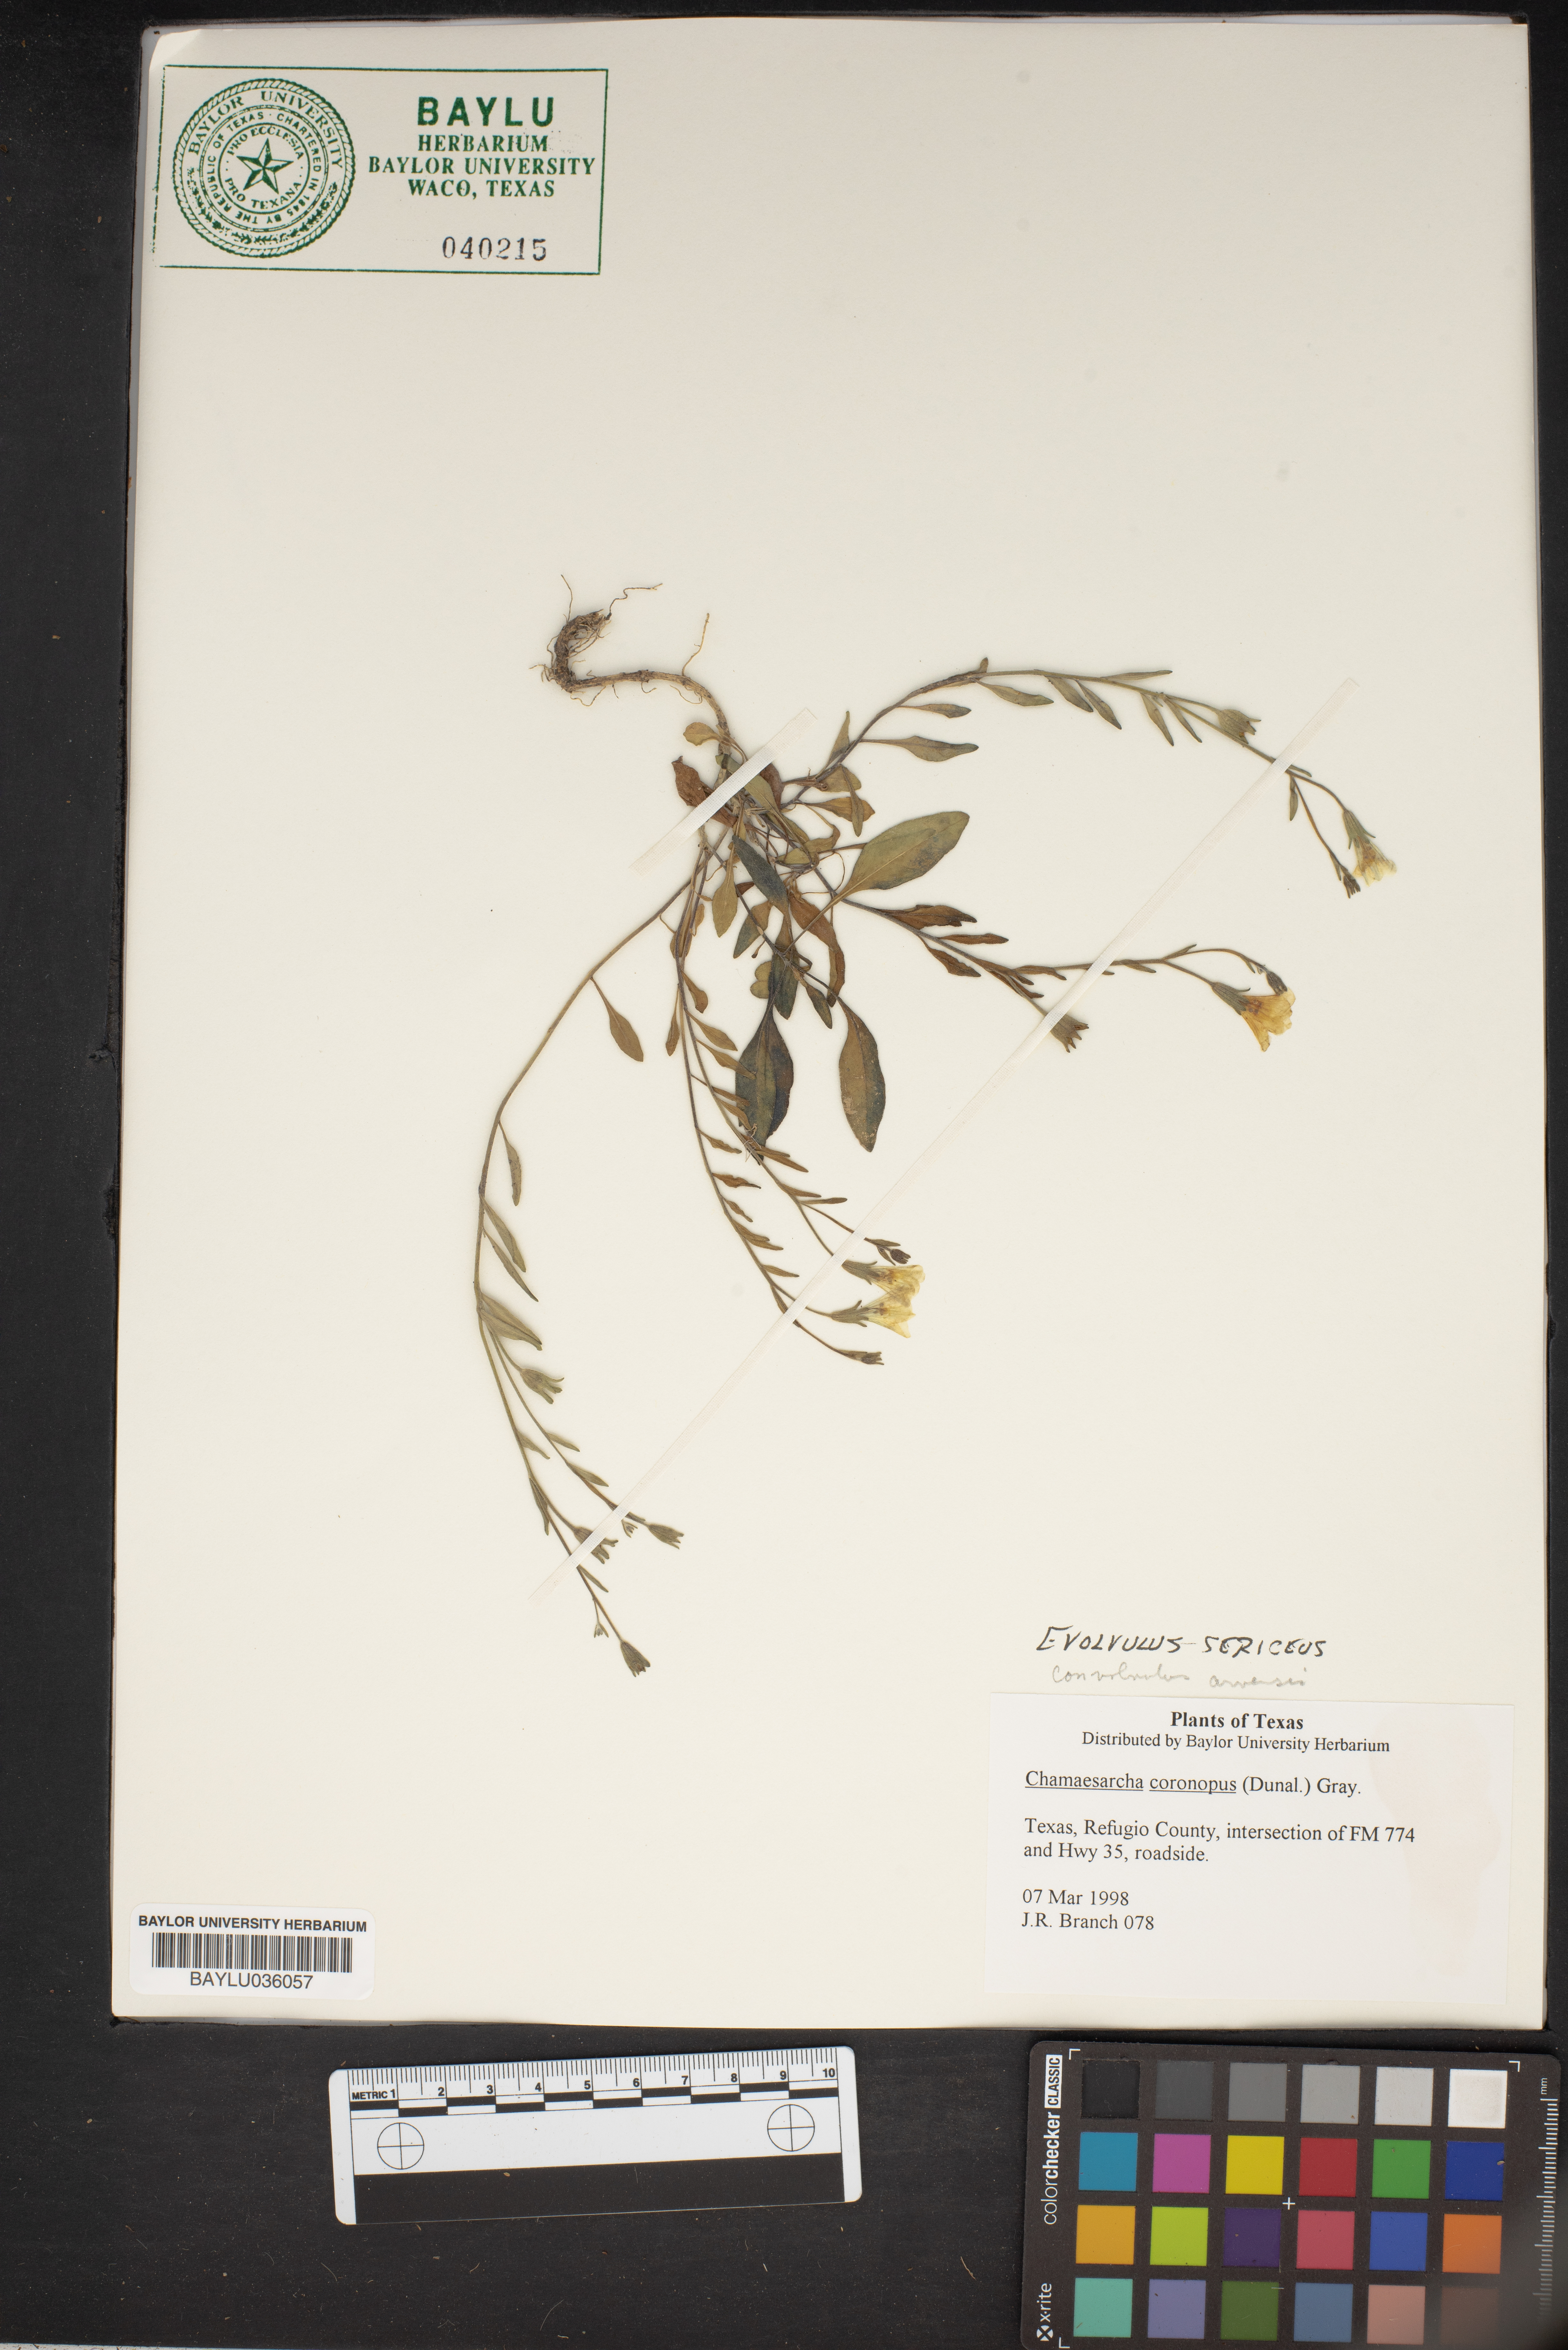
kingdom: Plantae
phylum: Tracheophyta
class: Magnoliopsida
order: Solanales
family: Solanaceae
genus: Chamaesaracha
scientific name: Chamaesaracha coronopus
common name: Smooth chamaesaracha
